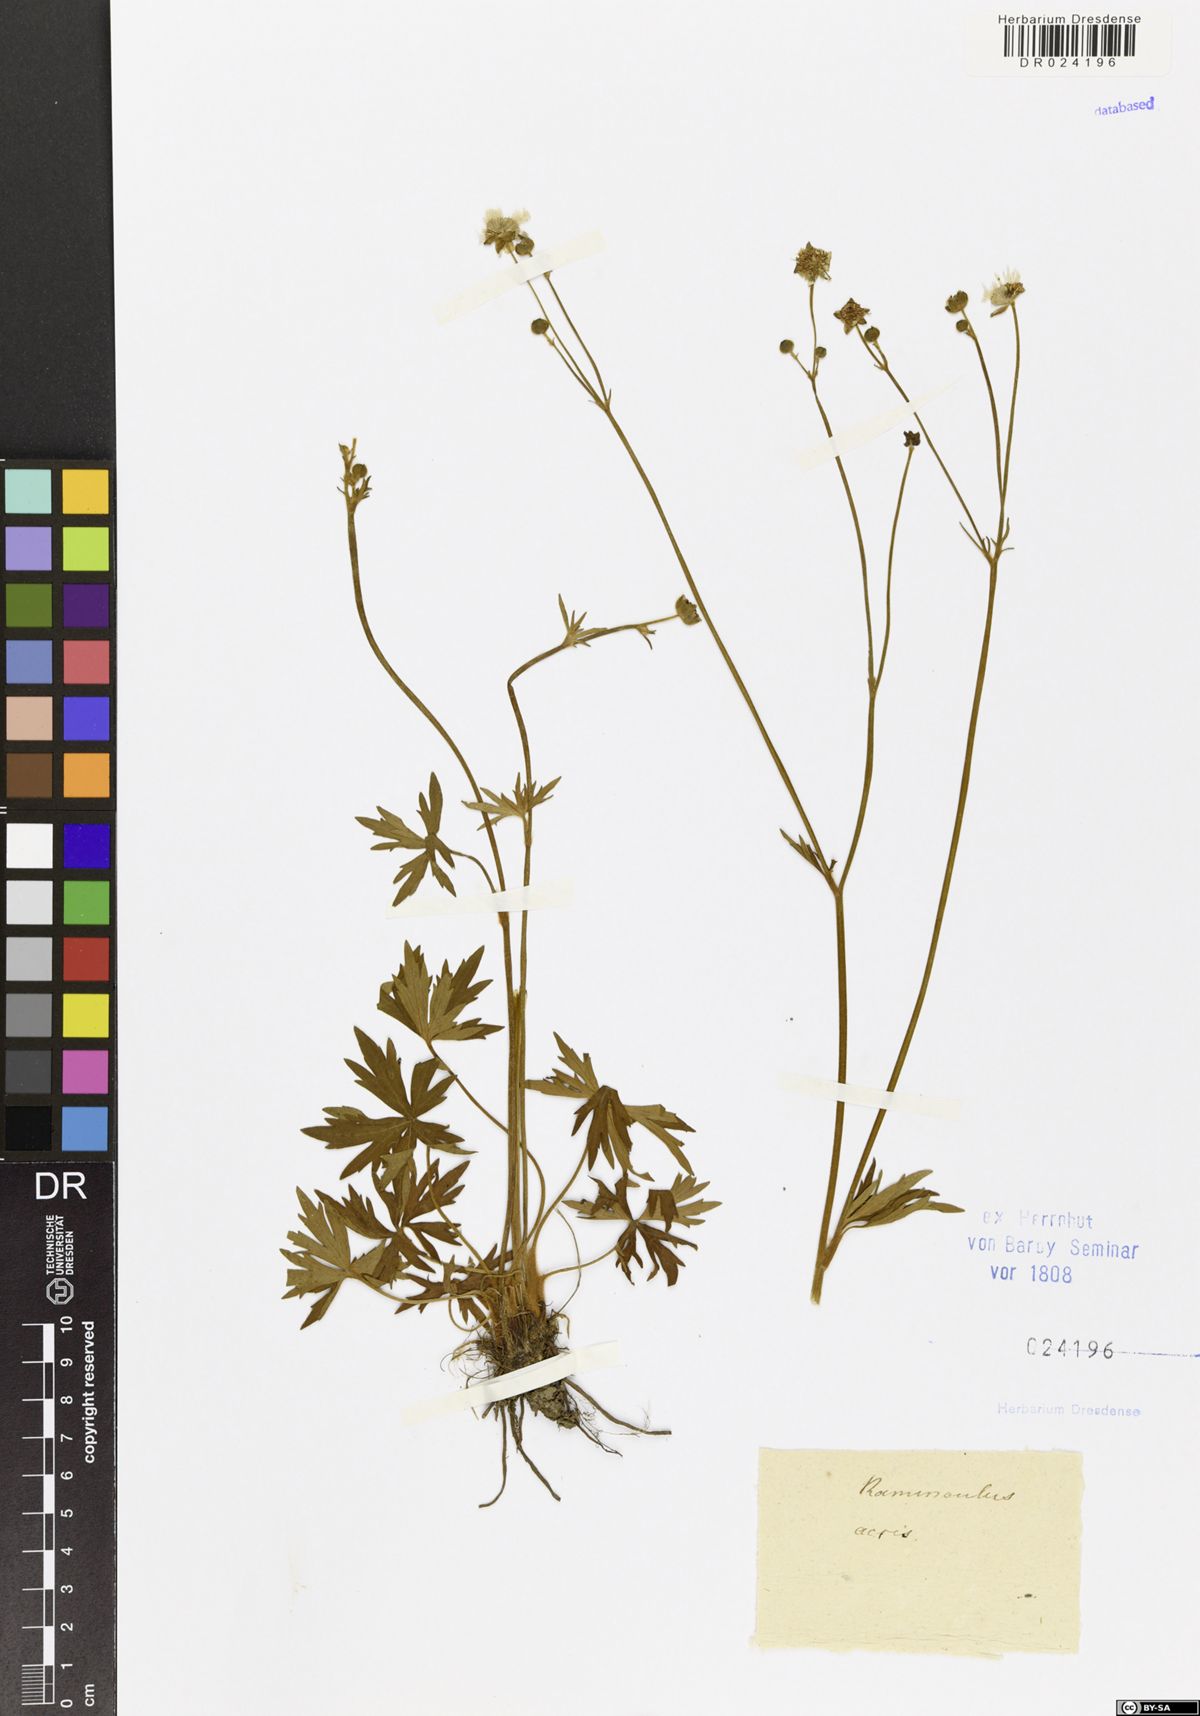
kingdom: Plantae
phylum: Tracheophyta
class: Magnoliopsida
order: Ranunculales
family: Ranunculaceae
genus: Ranunculus
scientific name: Ranunculus acris
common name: Meadow buttercup
